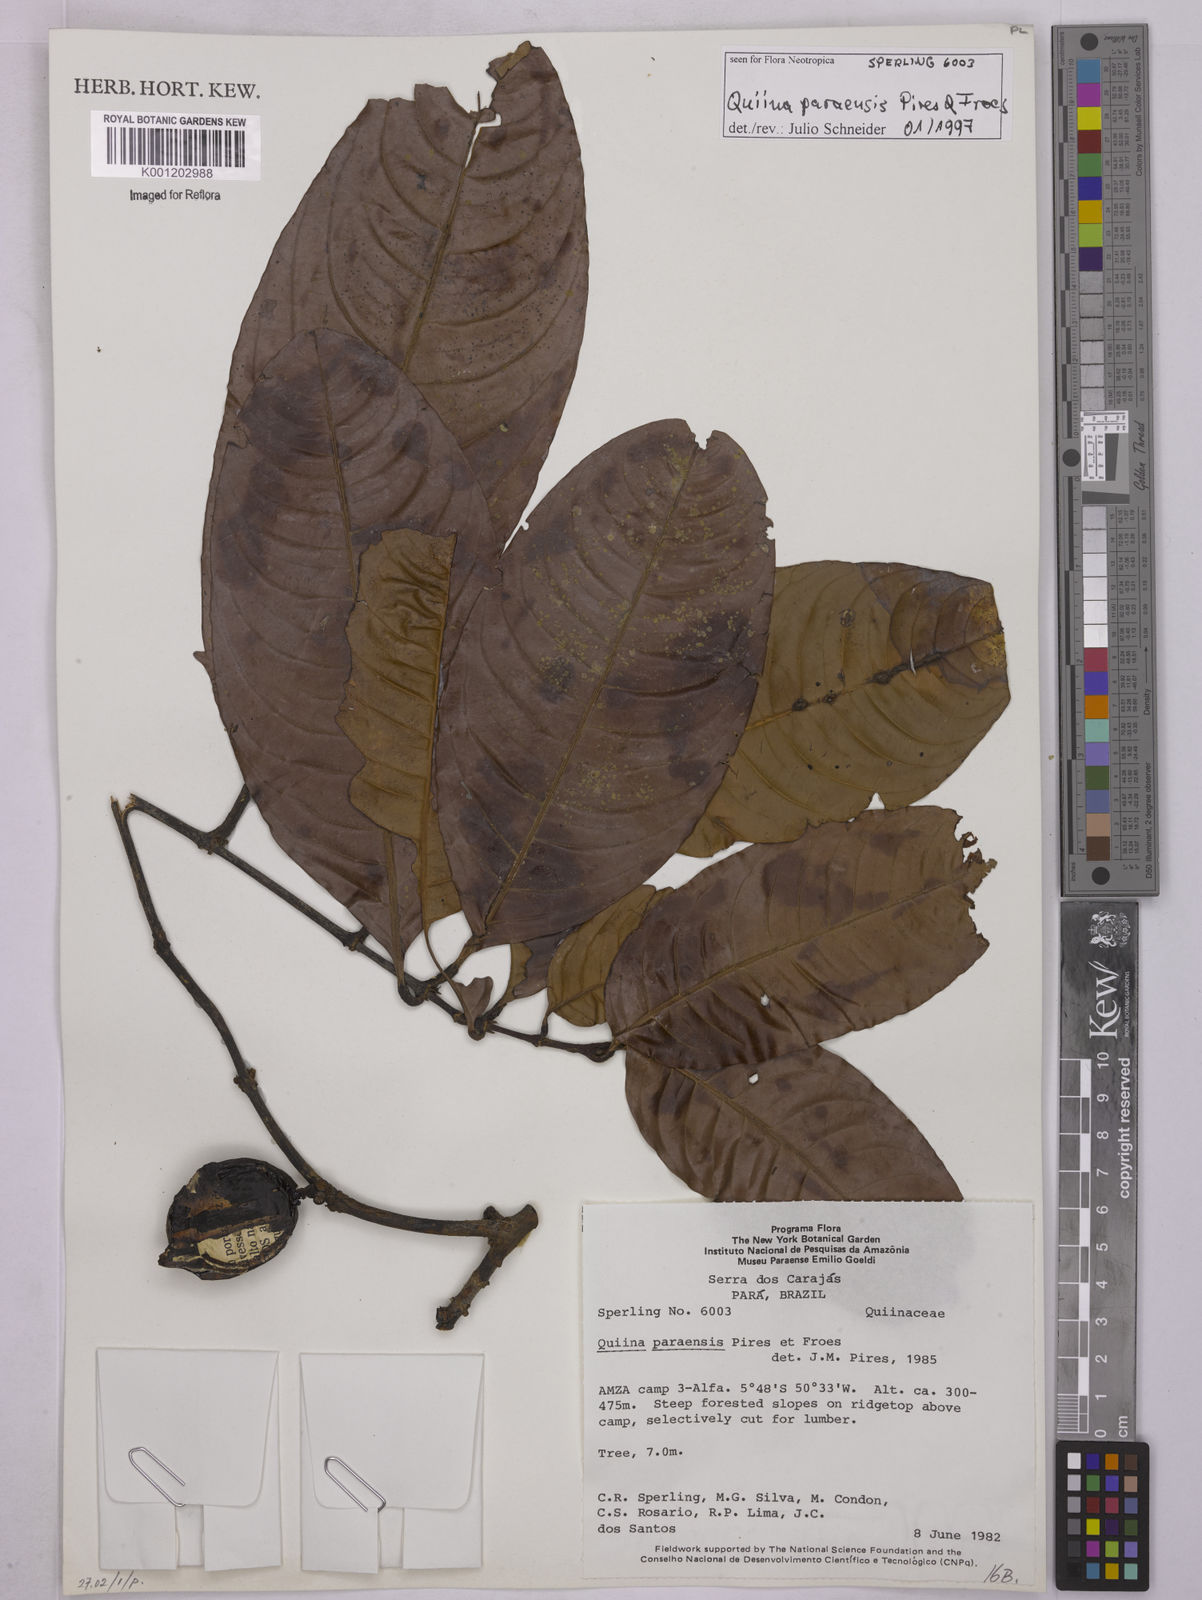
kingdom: Plantae
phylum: Tracheophyta
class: Magnoliopsida
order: Malpighiales
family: Quiinaceae
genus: Quiina
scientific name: Quiina paraensis
